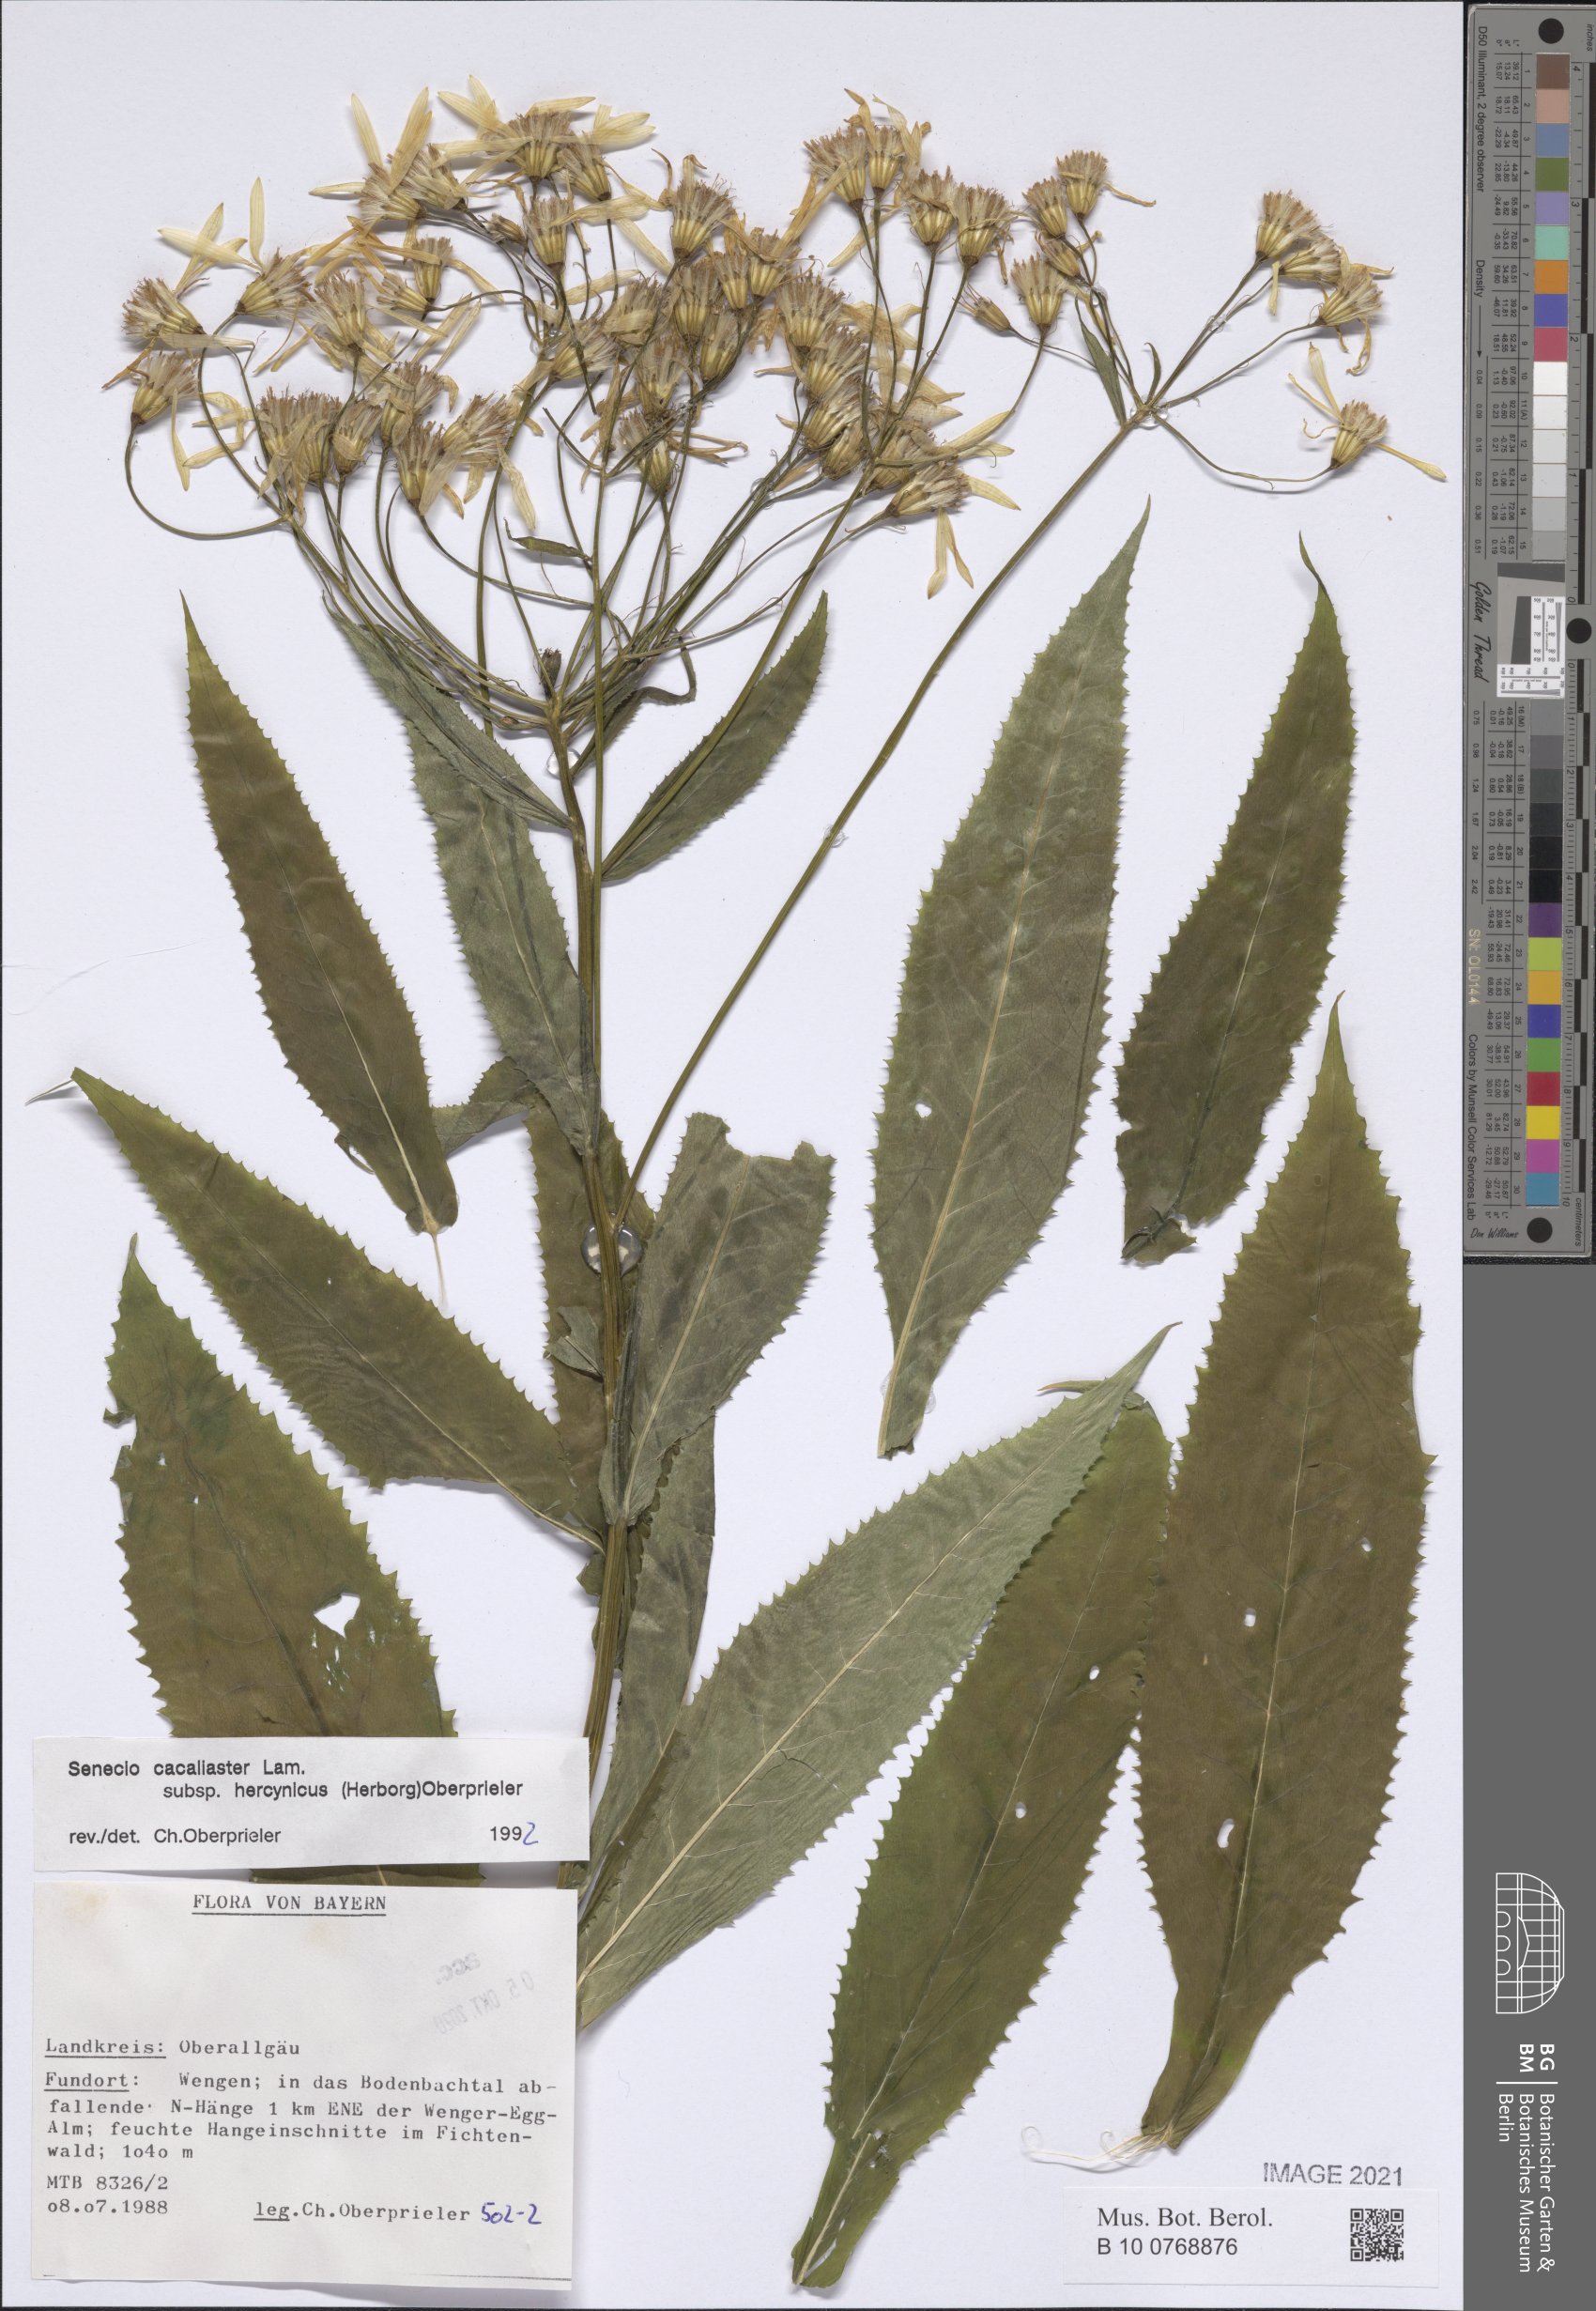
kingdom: Plantae
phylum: Tracheophyta
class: Magnoliopsida
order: Asterales
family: Asteraceae
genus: Senecio
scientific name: Senecio hercynicus
